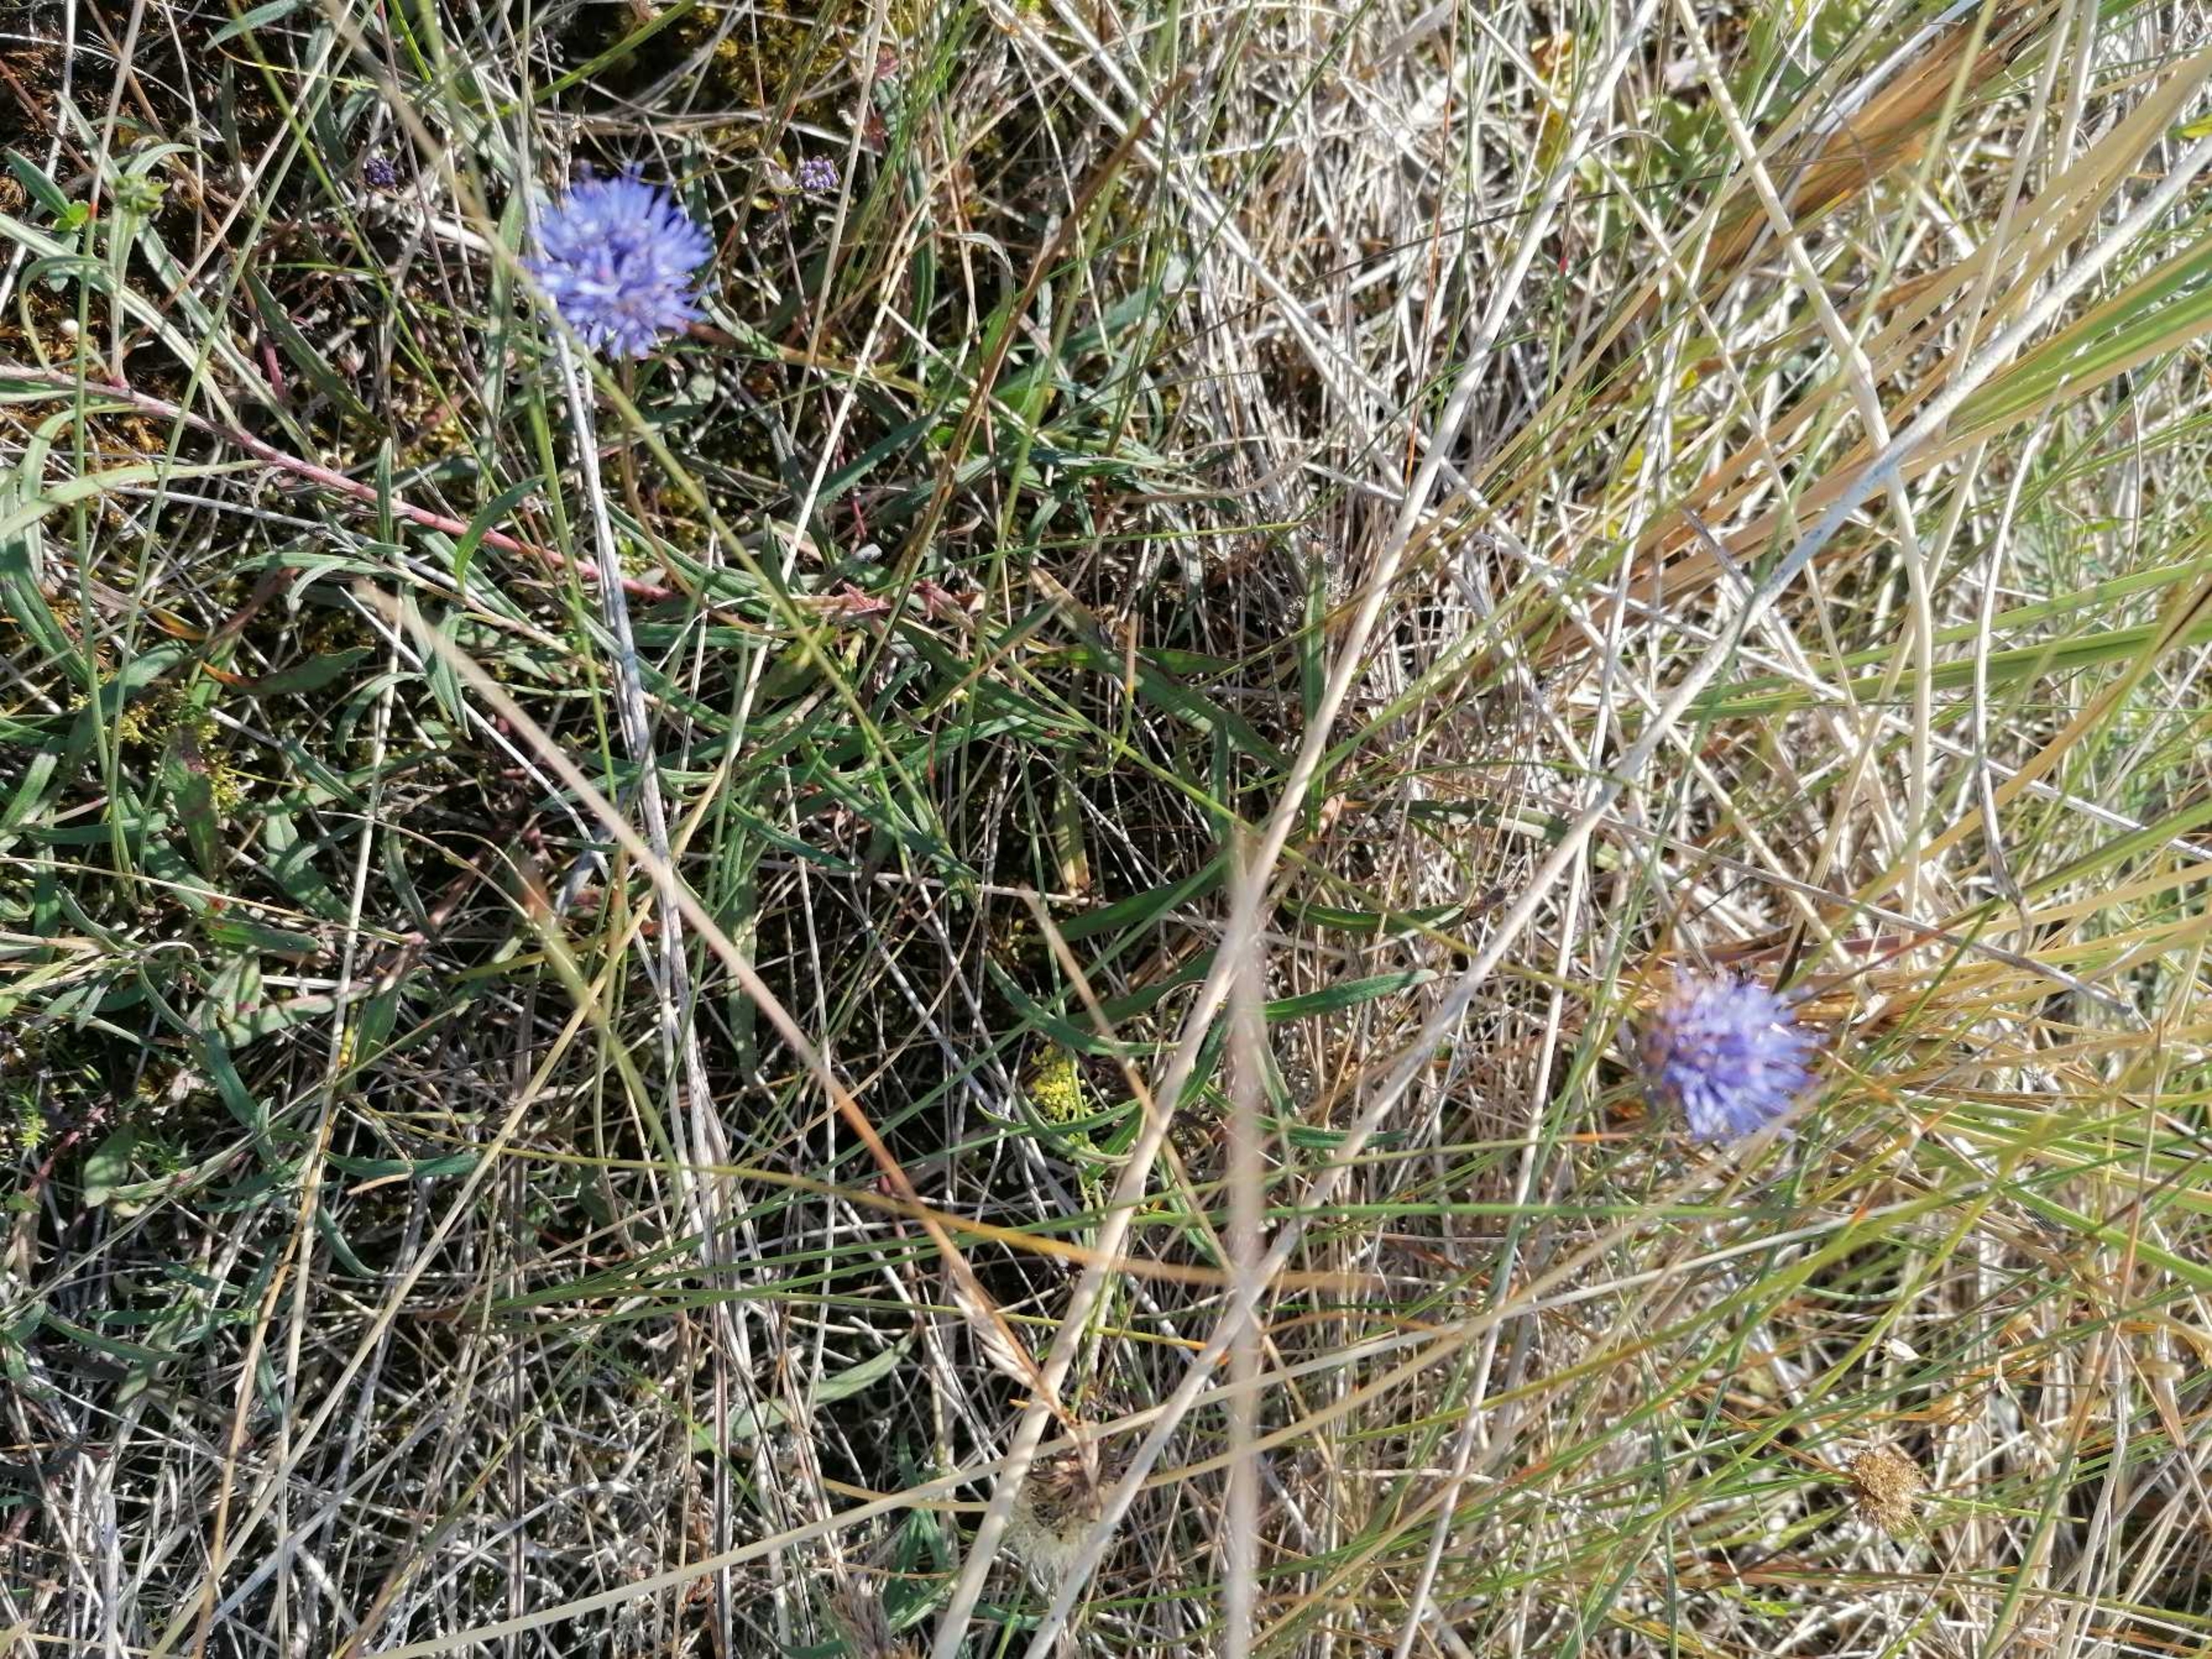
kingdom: Plantae
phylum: Tracheophyta
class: Magnoliopsida
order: Asterales
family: Campanulaceae
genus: Jasione
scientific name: Jasione montana
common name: Blåmunke
